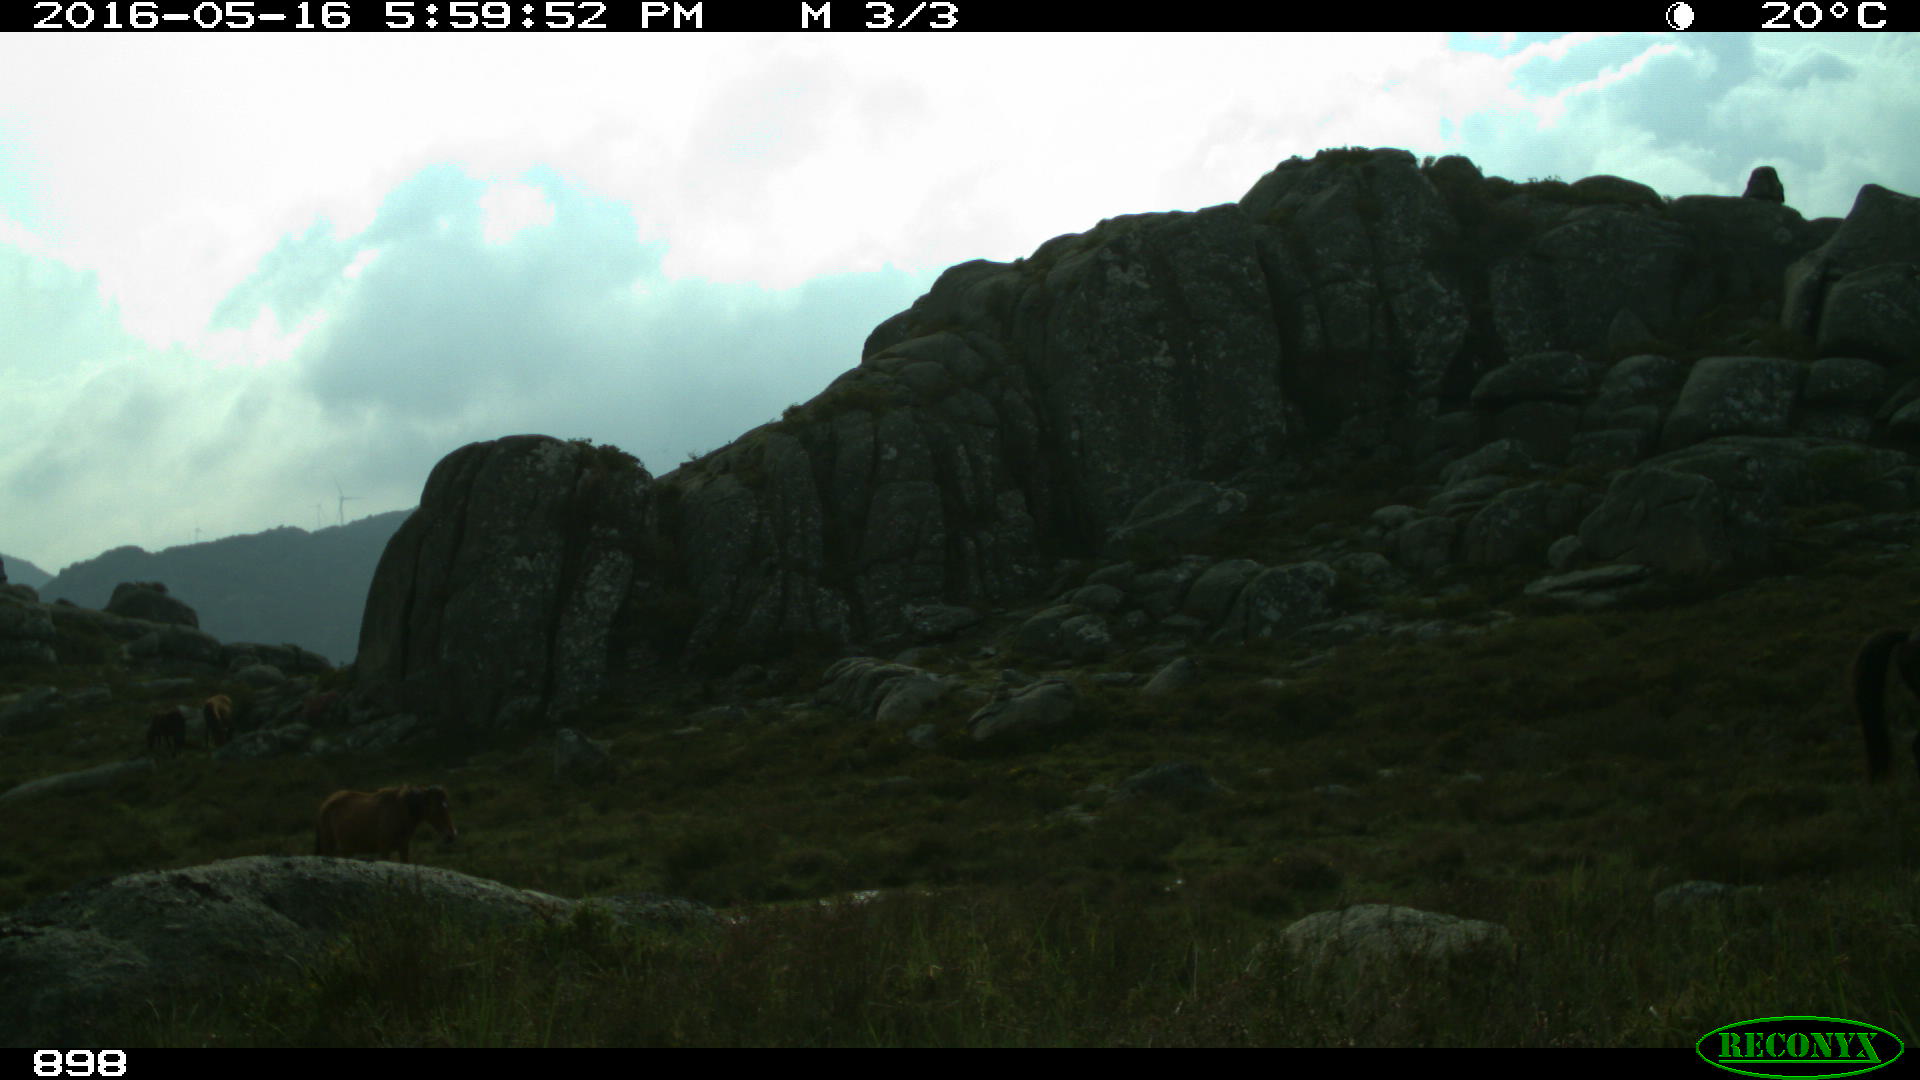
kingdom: Animalia
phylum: Chordata
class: Mammalia
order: Perissodactyla
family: Equidae
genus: Equus
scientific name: Equus caballus
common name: Horse
